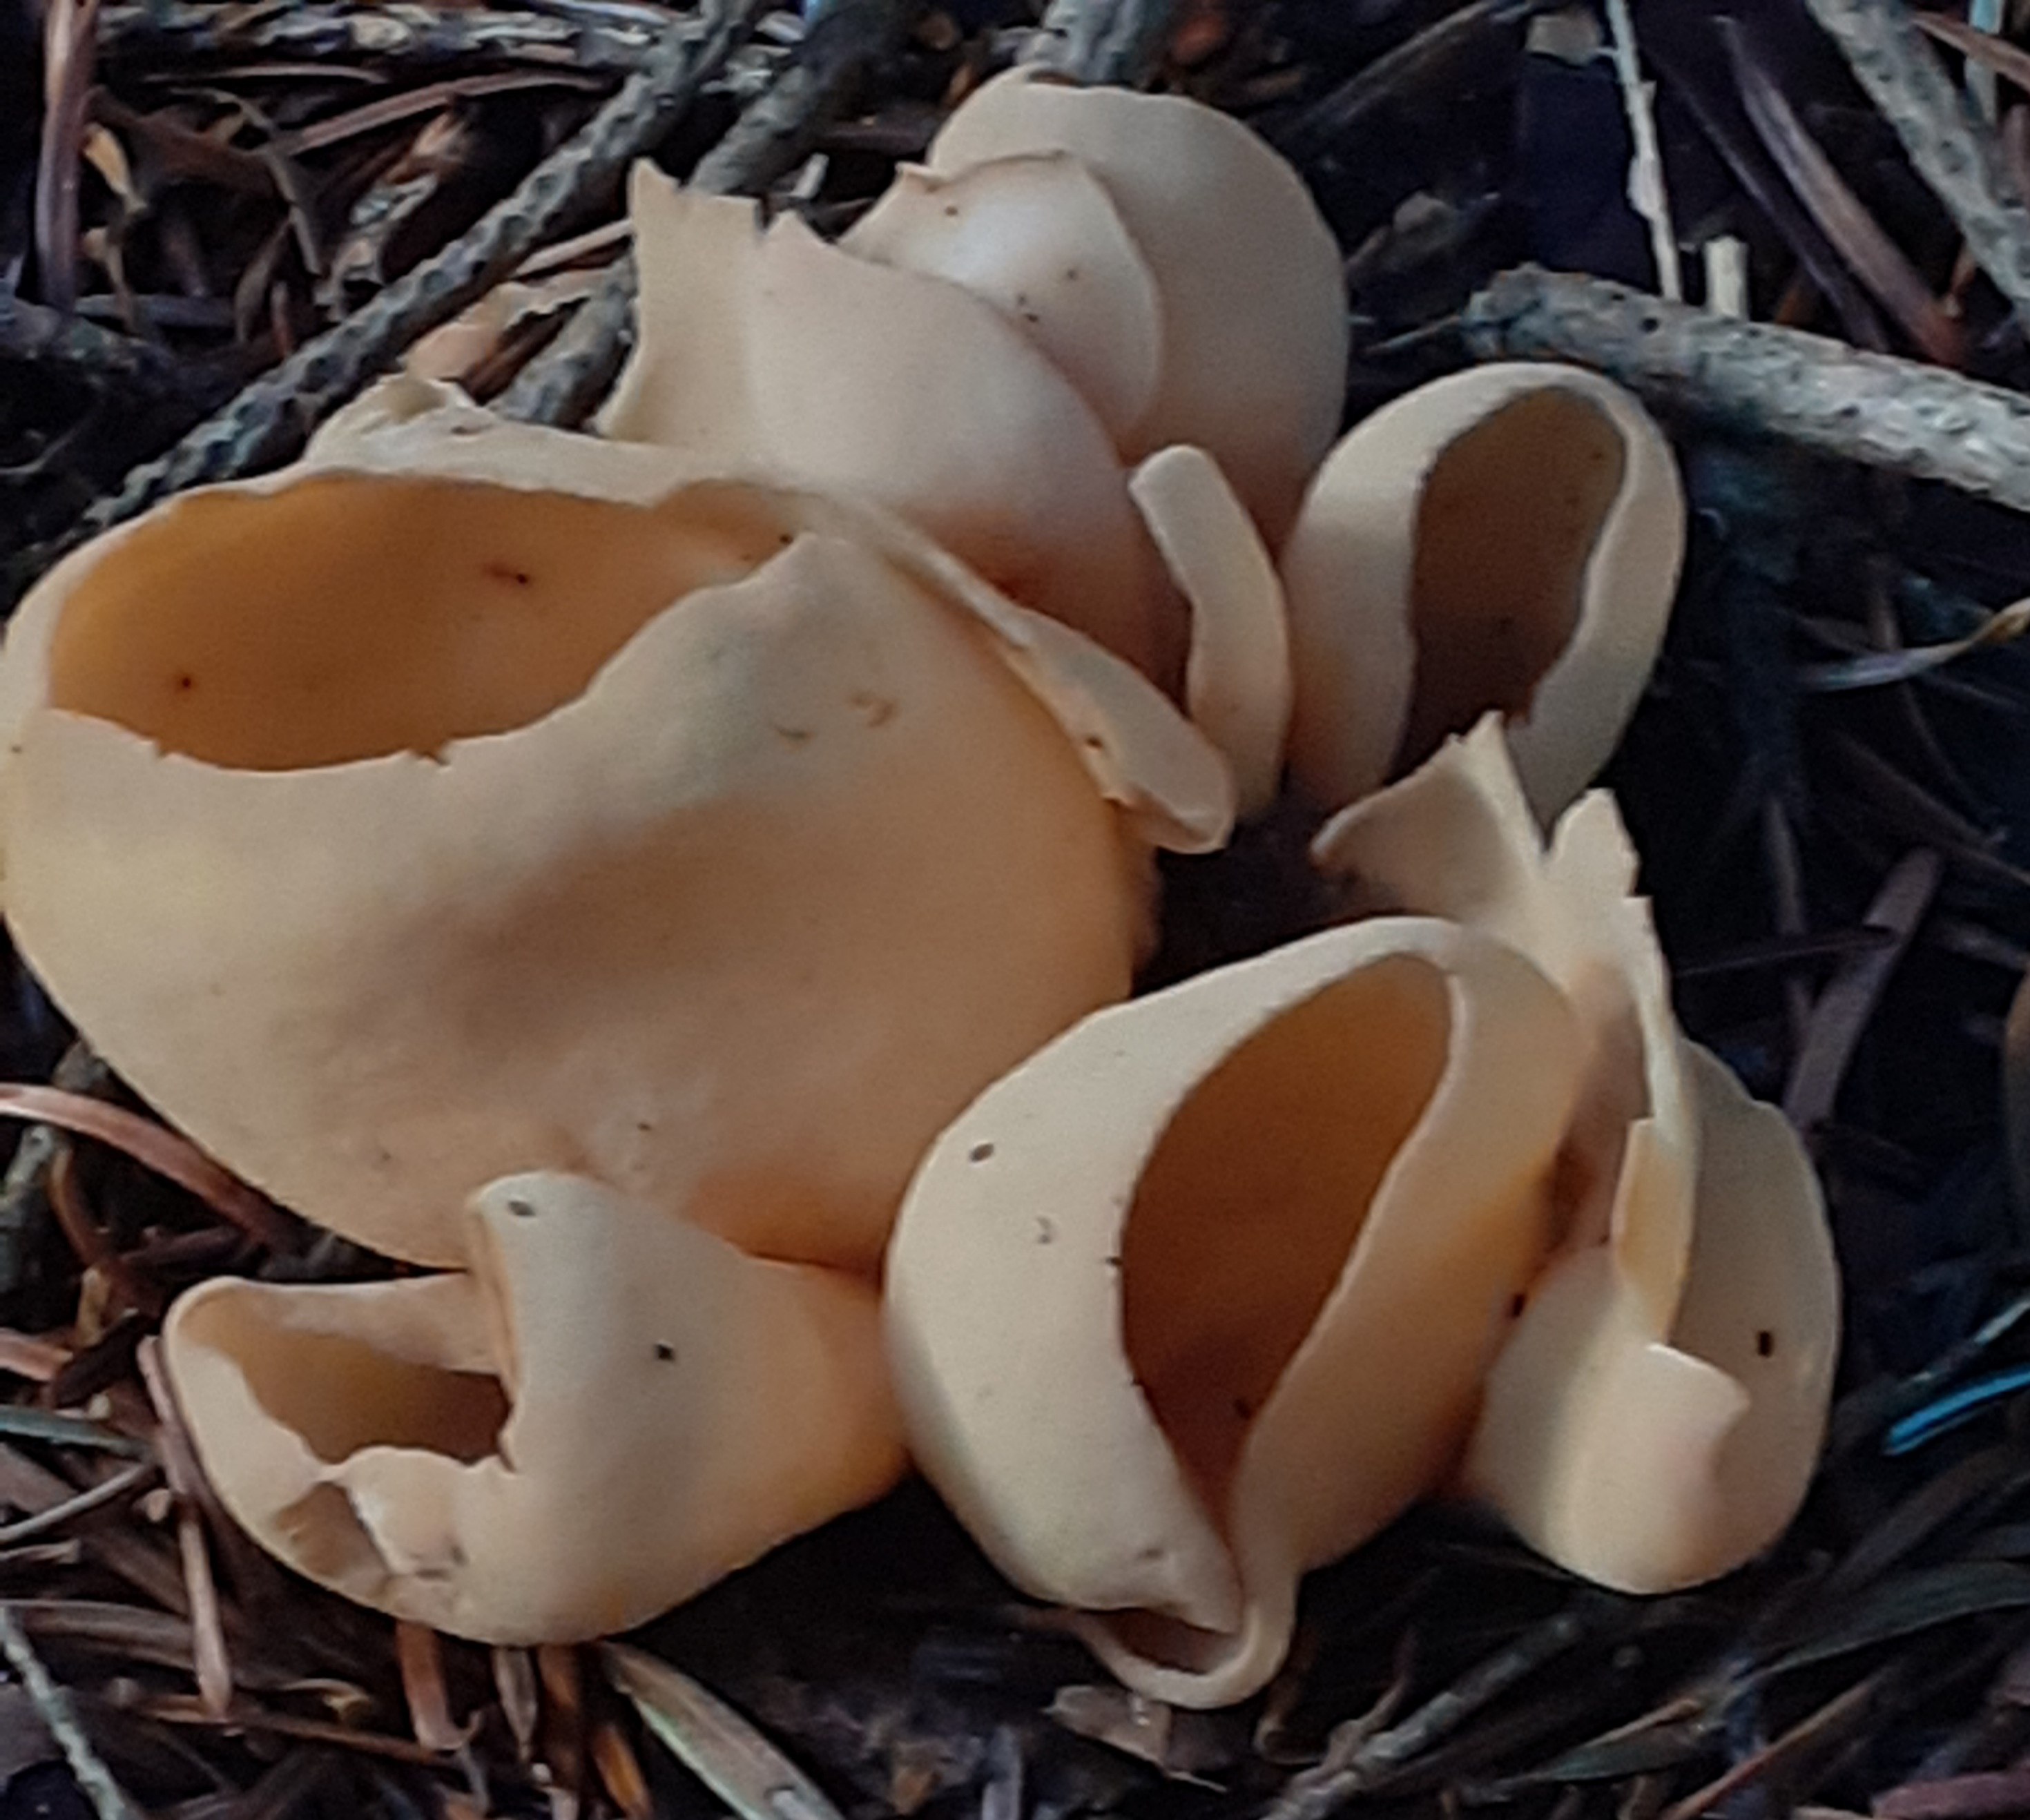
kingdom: Fungi
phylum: Ascomycota
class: Pezizomycetes
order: Pezizales
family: Otideaceae
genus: Otidea
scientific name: Otidea onotica
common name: æsel-ørebæger
